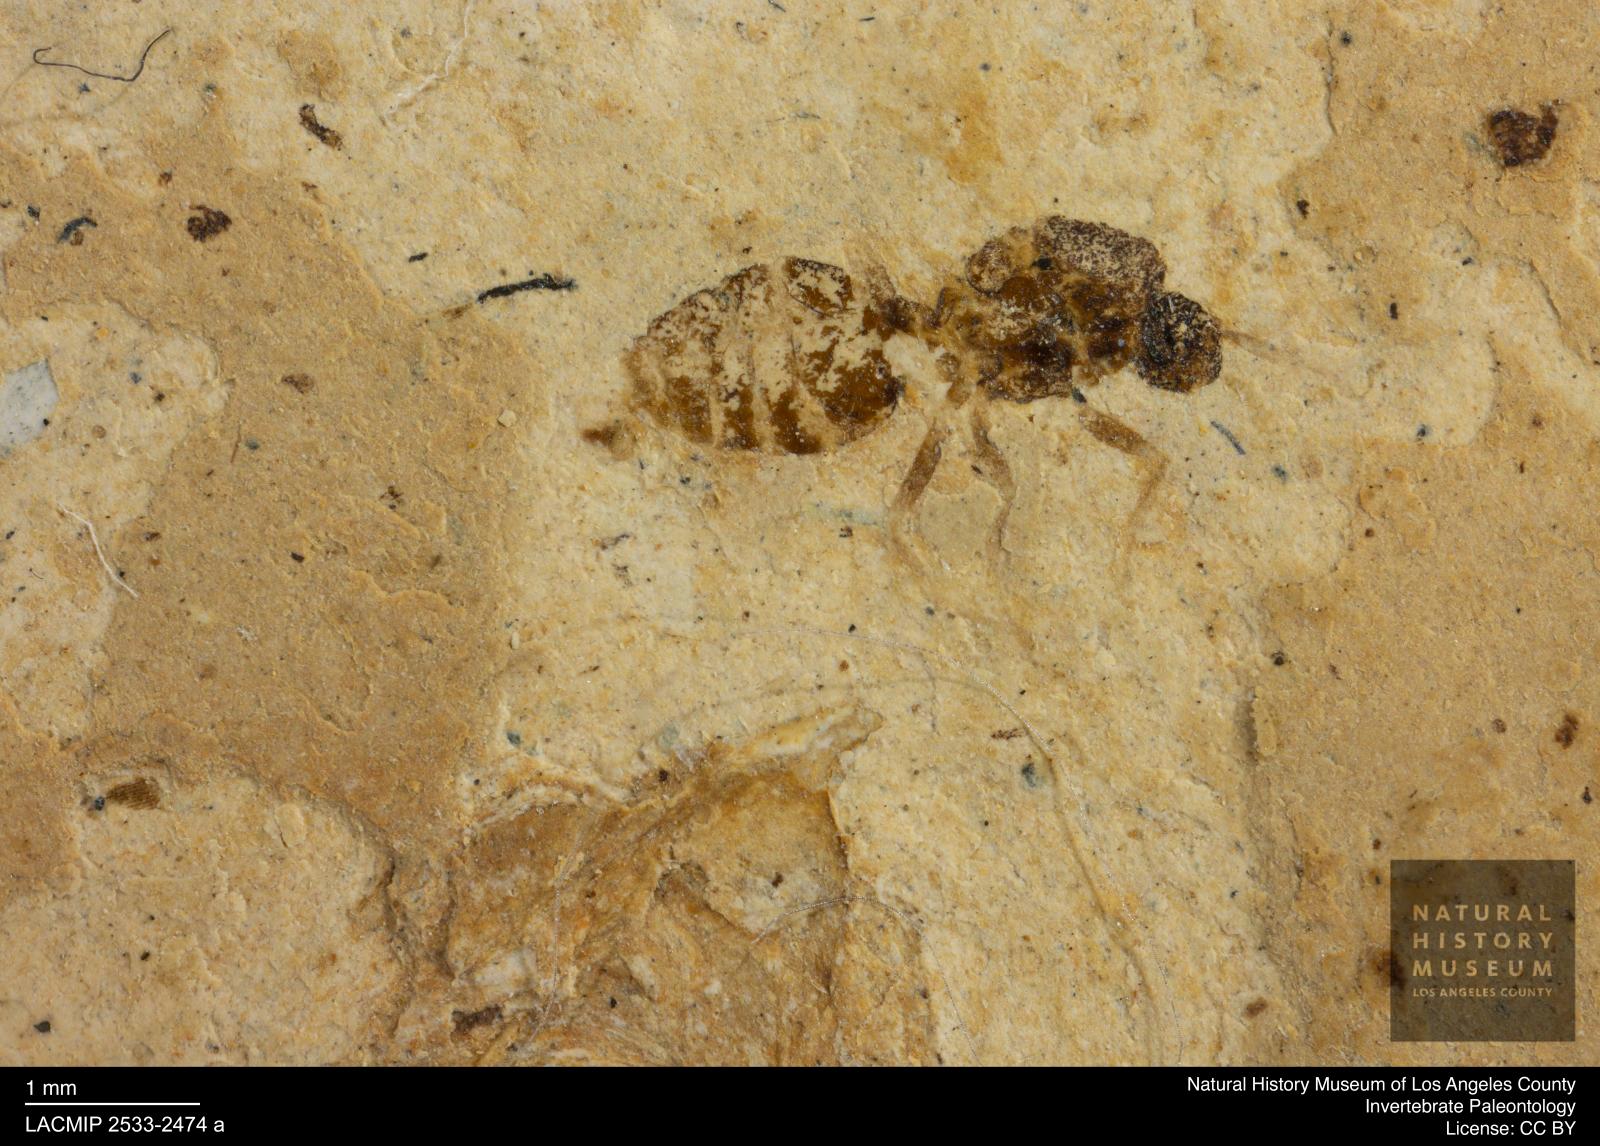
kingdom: Animalia
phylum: Arthropoda
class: Insecta
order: Hymenoptera
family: Formicidae
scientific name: Formicidae
